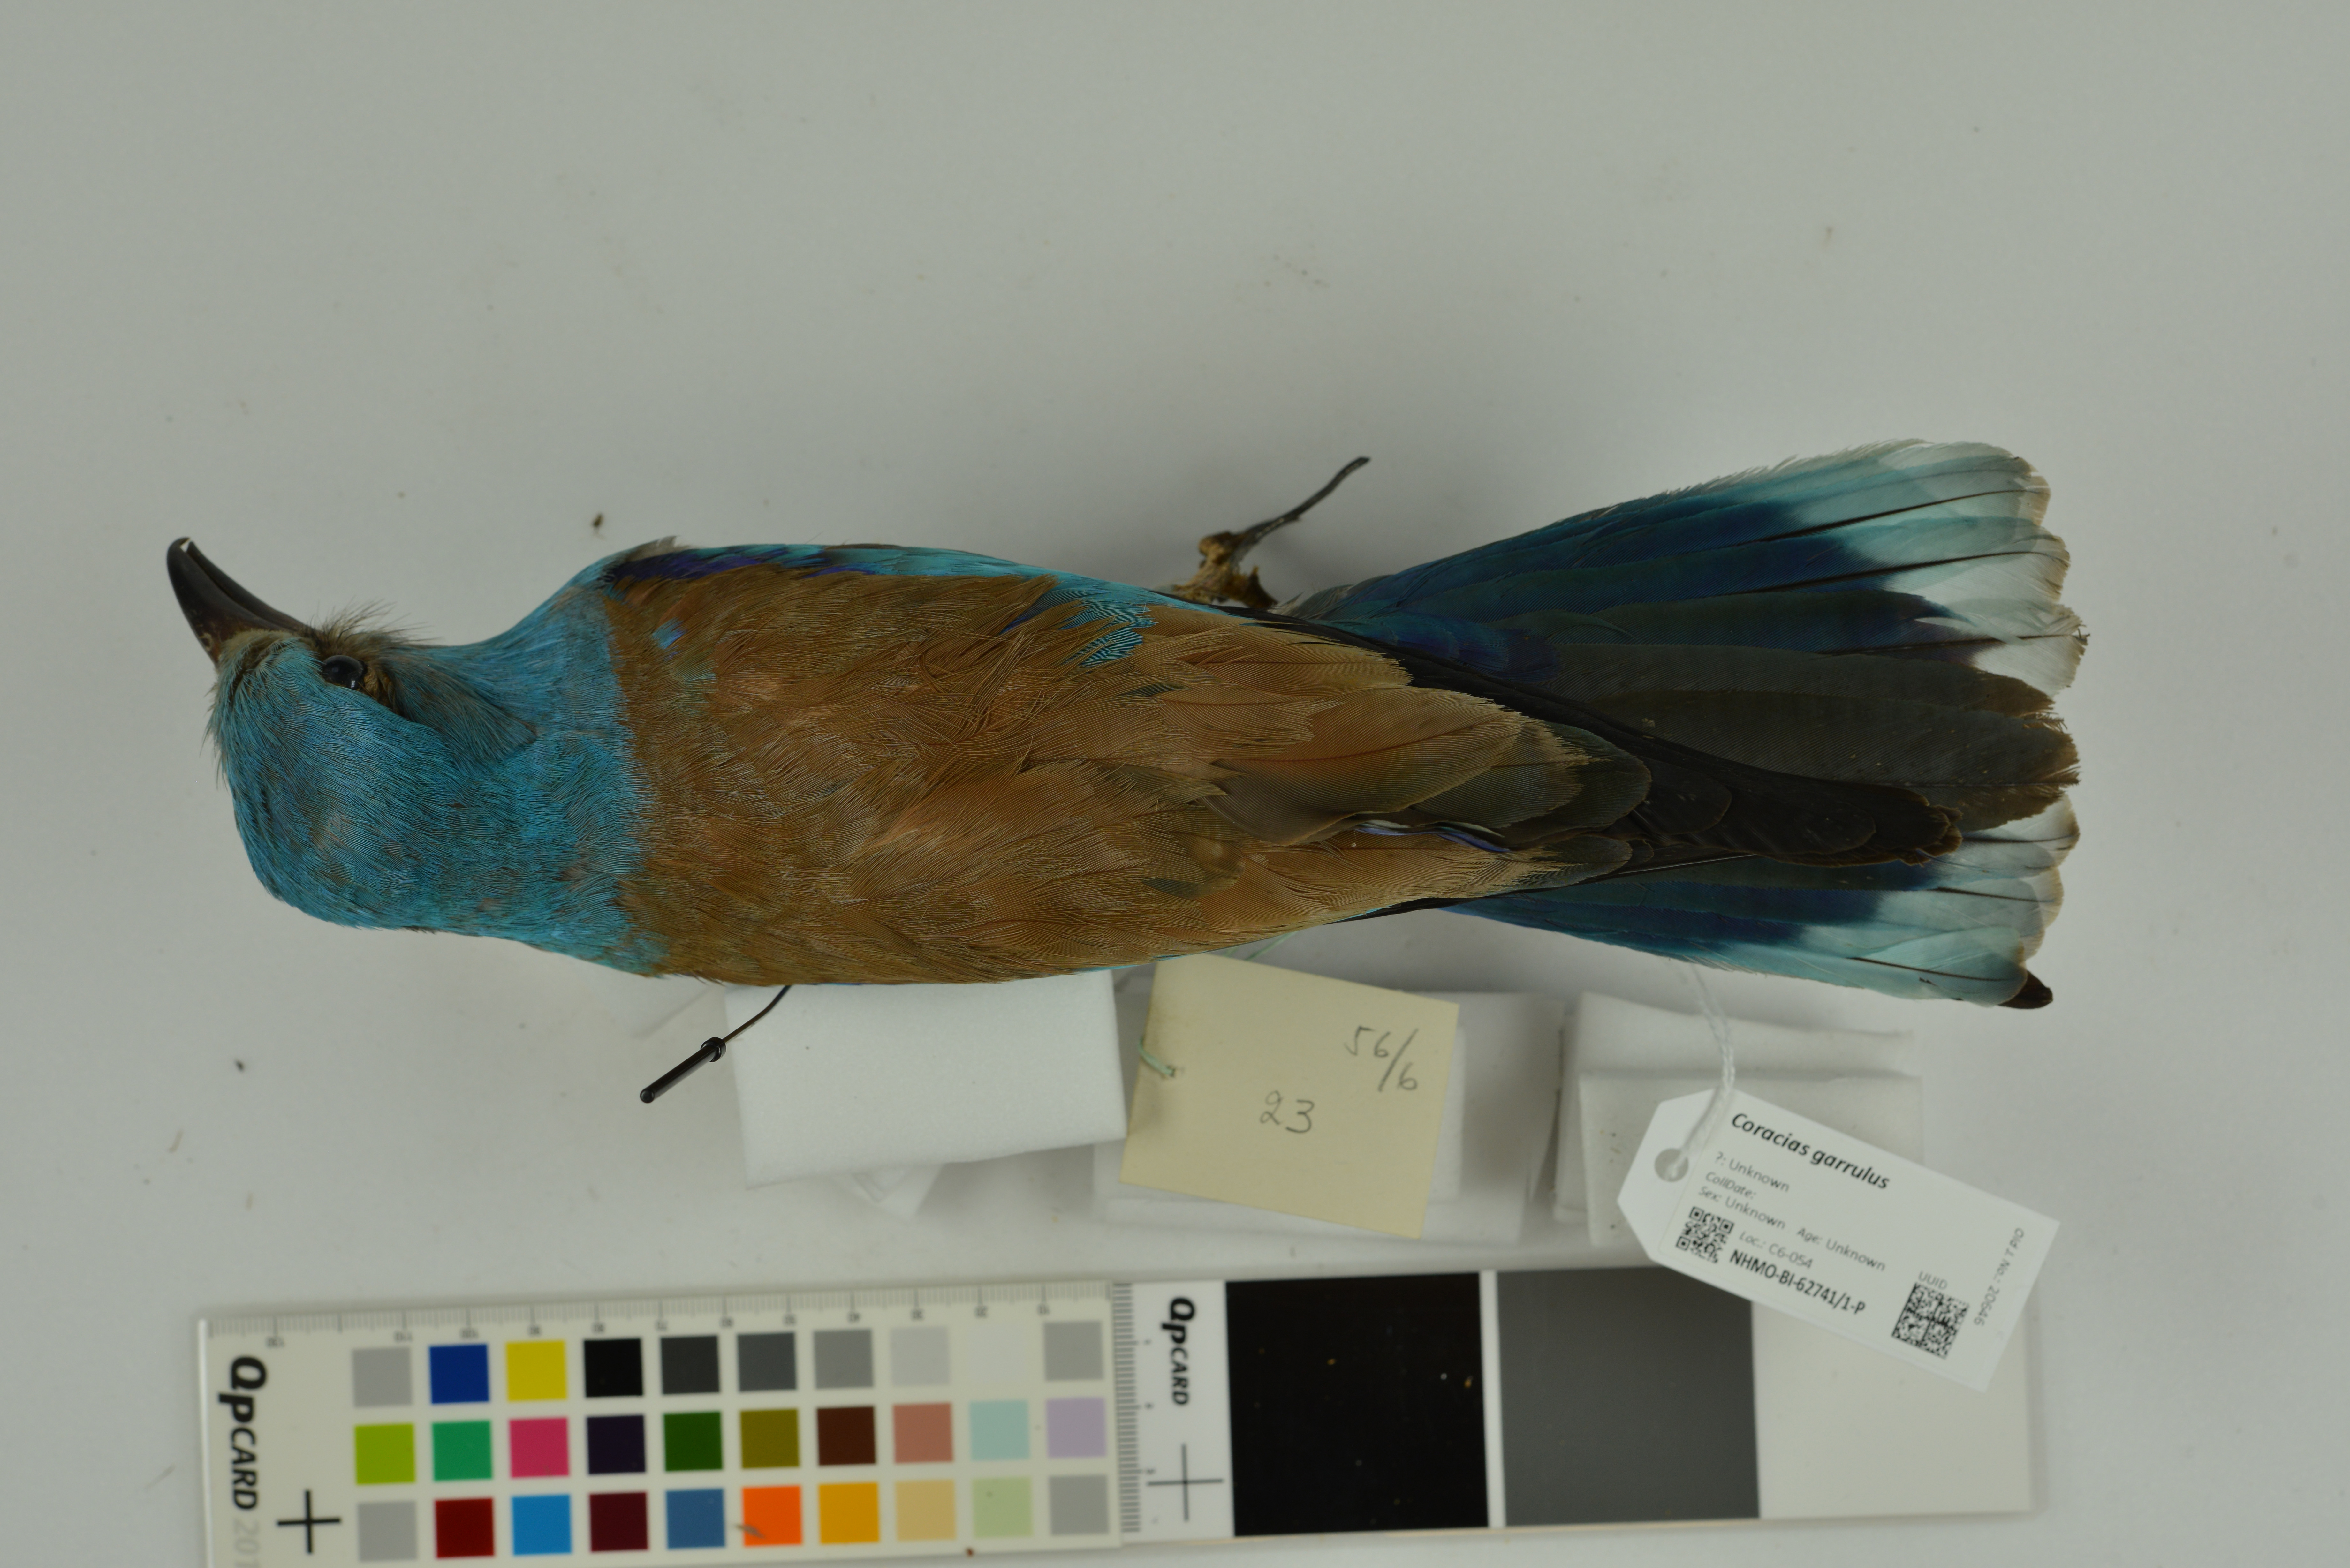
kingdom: Animalia
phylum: Chordata
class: Aves
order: Coraciiformes
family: Coraciidae
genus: Coracias
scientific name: Coracias garrulus
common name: European roller
